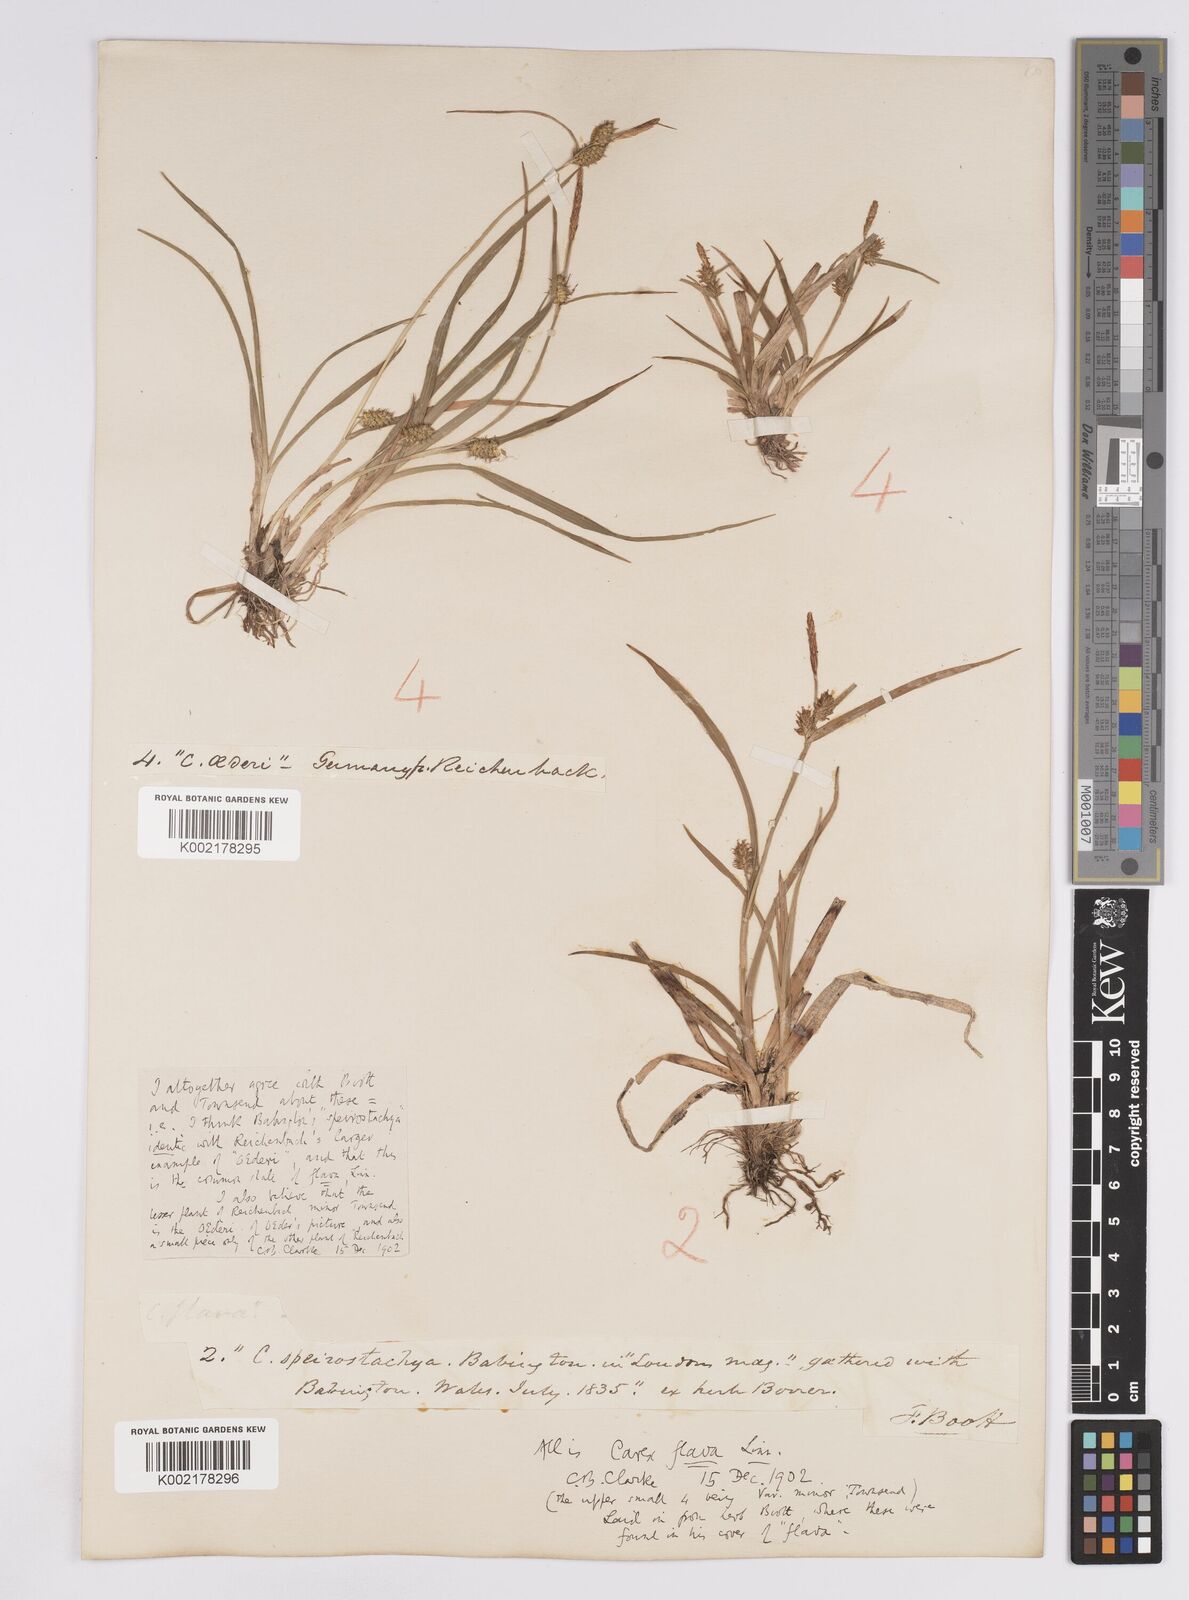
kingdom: Plantae
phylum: Tracheophyta
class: Liliopsida
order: Poales
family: Cyperaceae
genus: Carex
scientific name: Carex demissa
